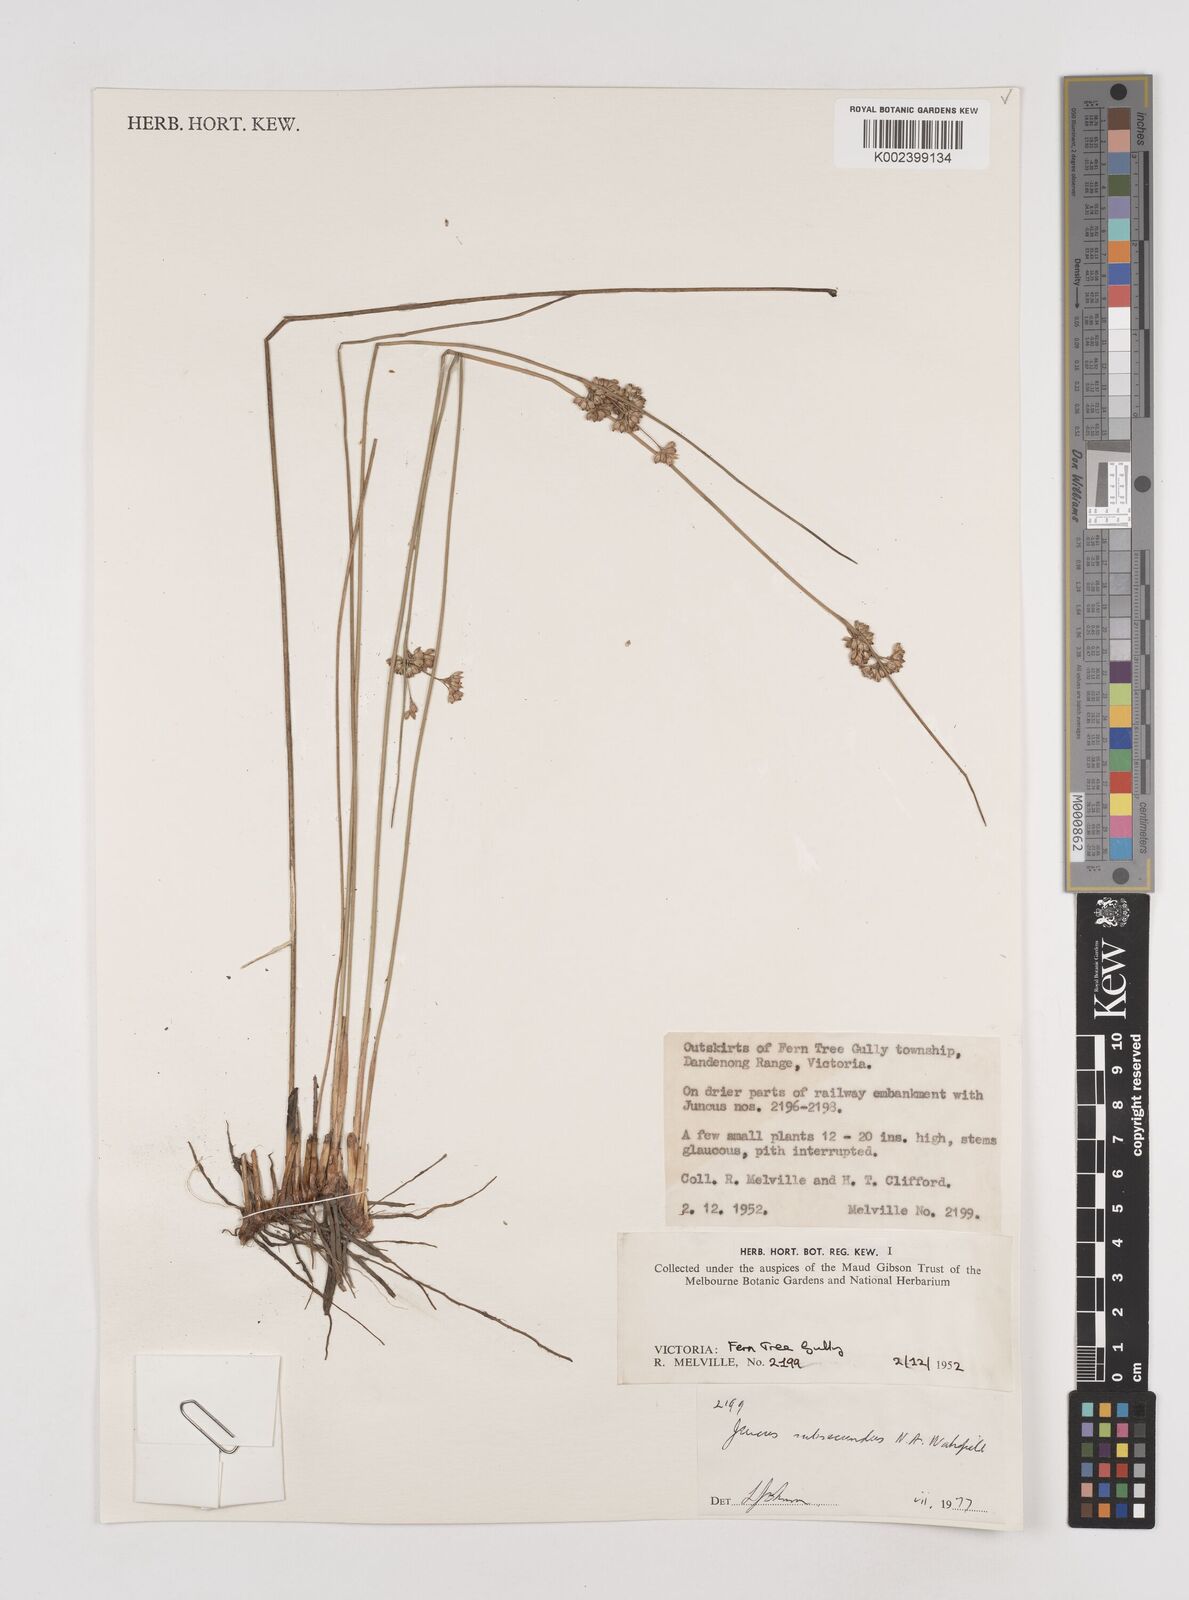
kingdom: Plantae
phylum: Tracheophyta
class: Liliopsida
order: Poales
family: Juncaceae
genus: Juncus
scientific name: Juncus subsecundus
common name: Fingered rush
